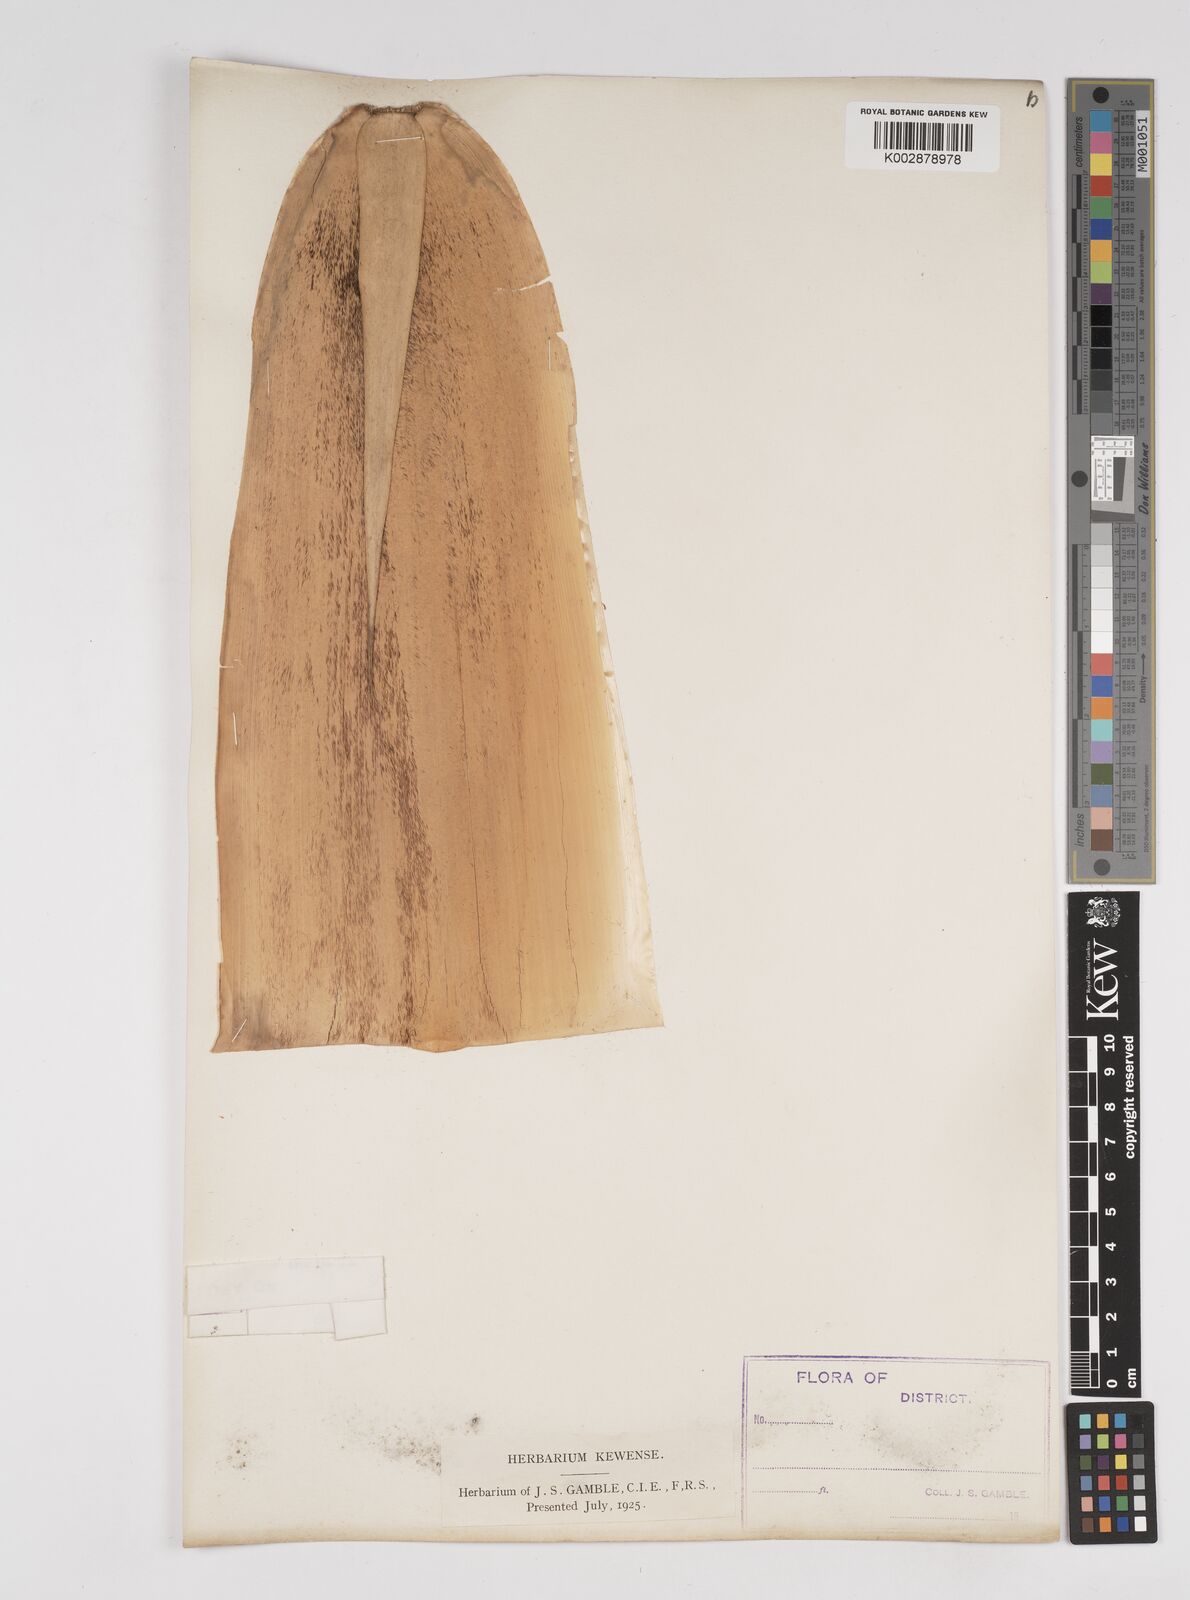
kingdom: Plantae
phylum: Tracheophyta
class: Liliopsida
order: Poales
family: Poaceae
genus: Dendrocalamus
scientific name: Dendrocalamus longispathus
